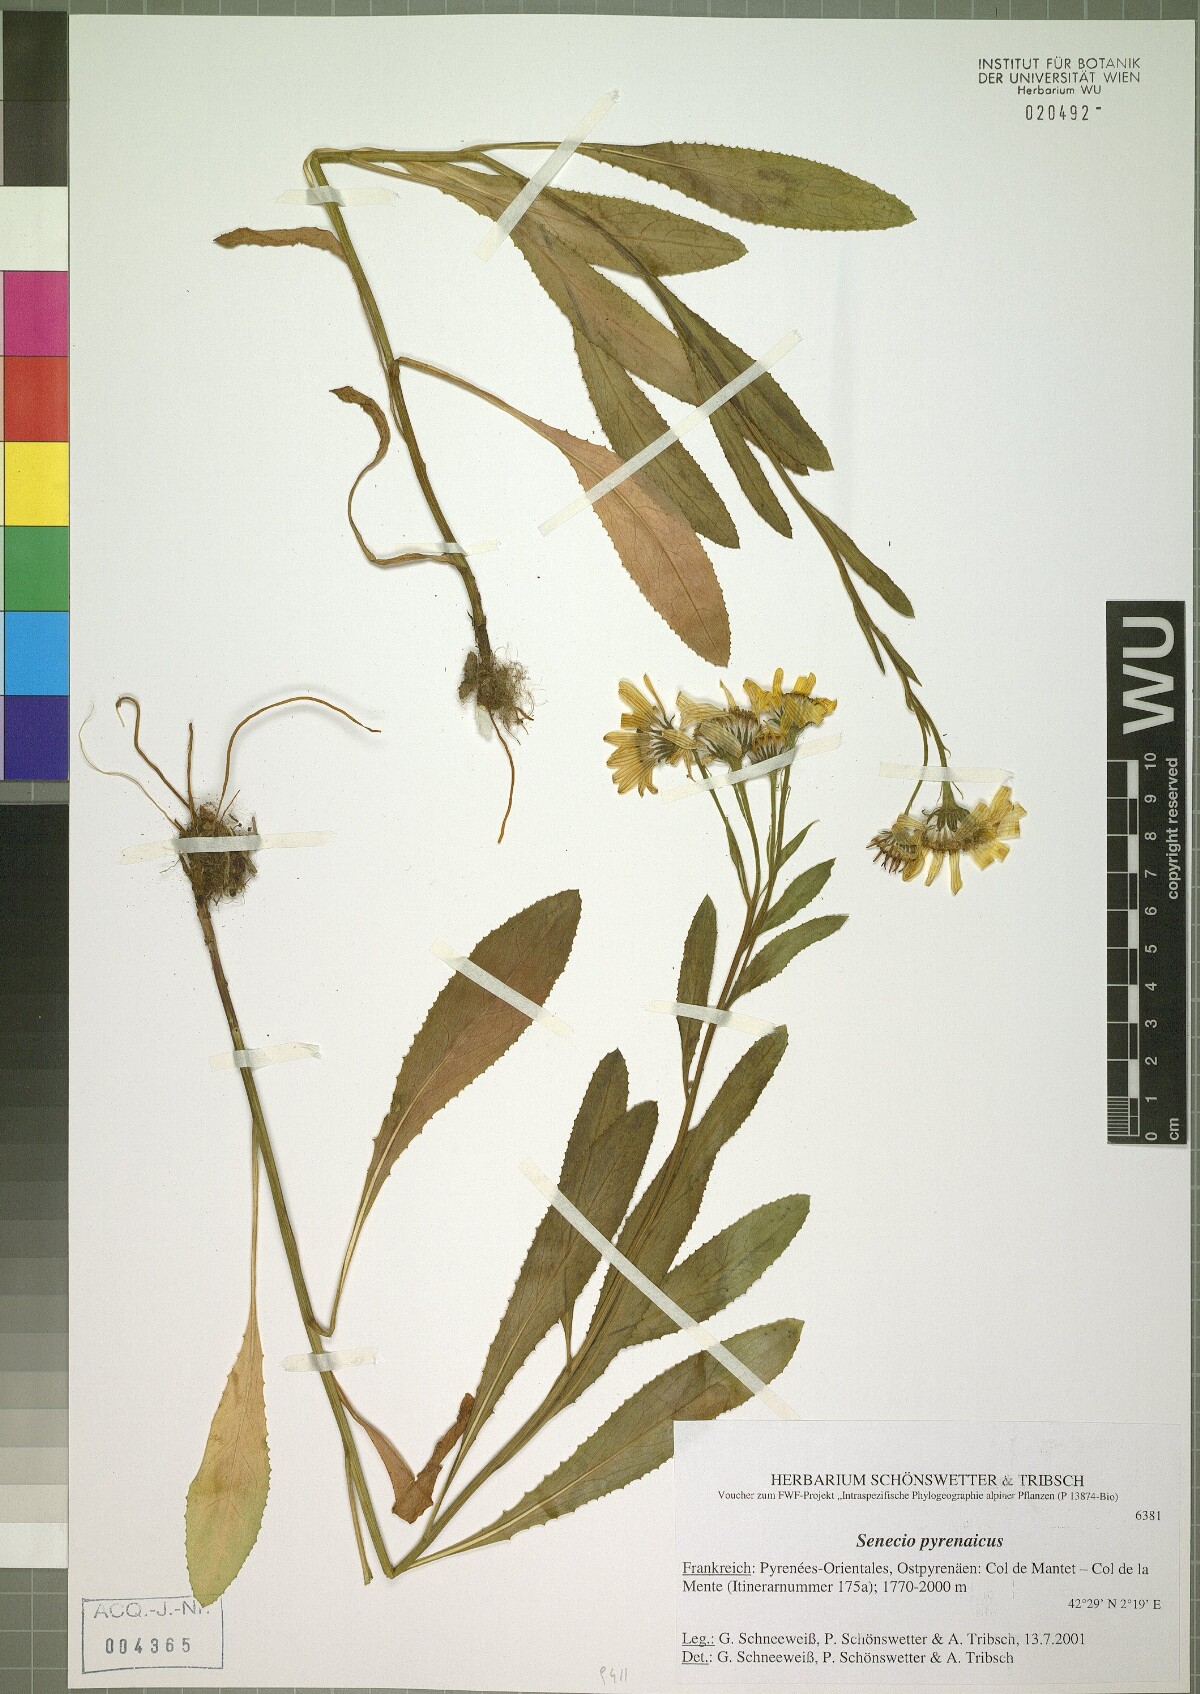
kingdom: Plantae
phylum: Tracheophyta
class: Magnoliopsida
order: Asterales
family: Asteraceae
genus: Senecio
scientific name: Senecio pyrenaicus
